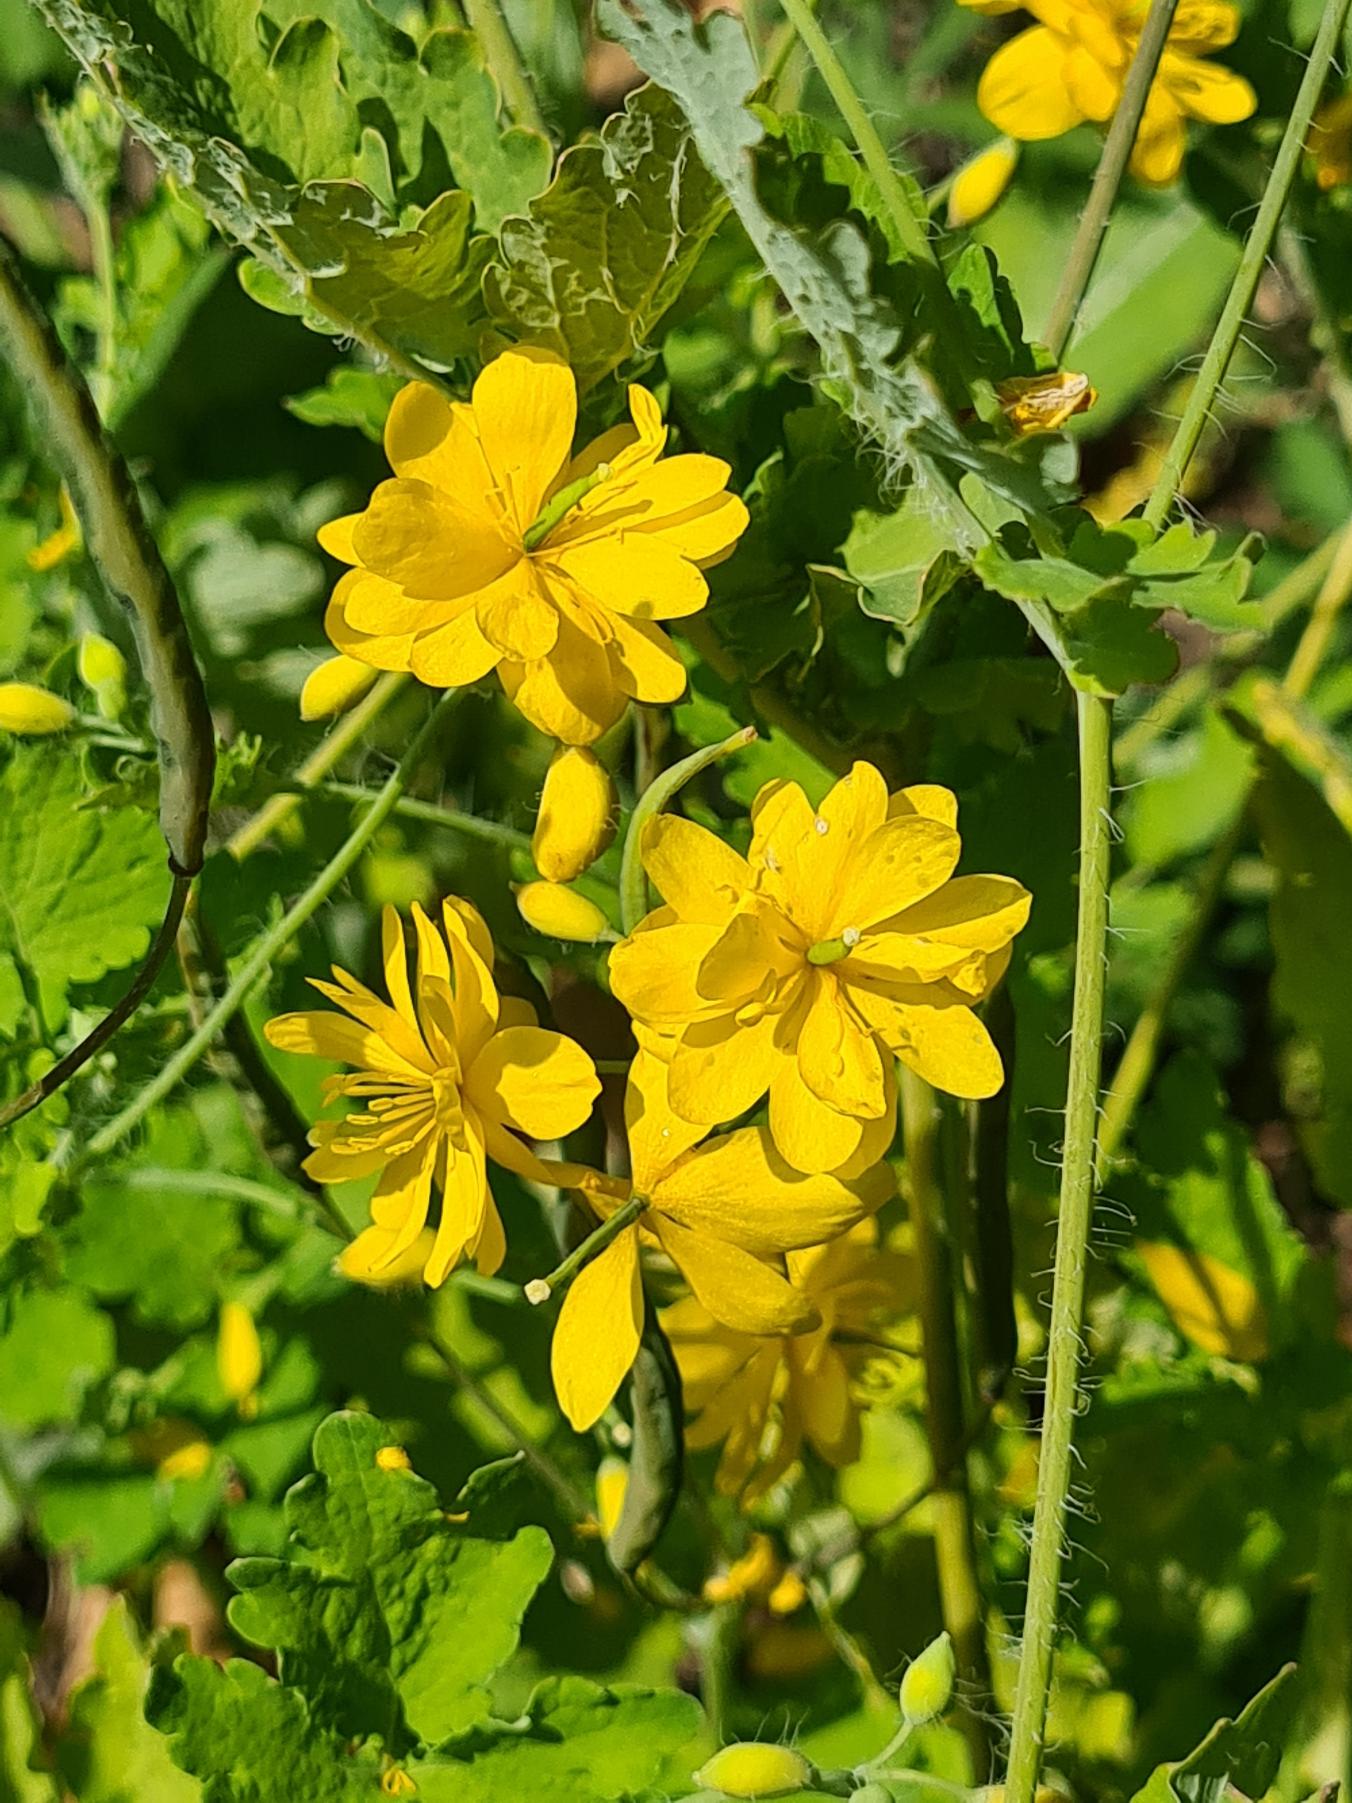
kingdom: Plantae
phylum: Tracheophyta
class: Magnoliopsida
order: Ranunculales
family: Papaveraceae
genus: Chelidonium
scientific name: Chelidonium majus
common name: Svaleurt
